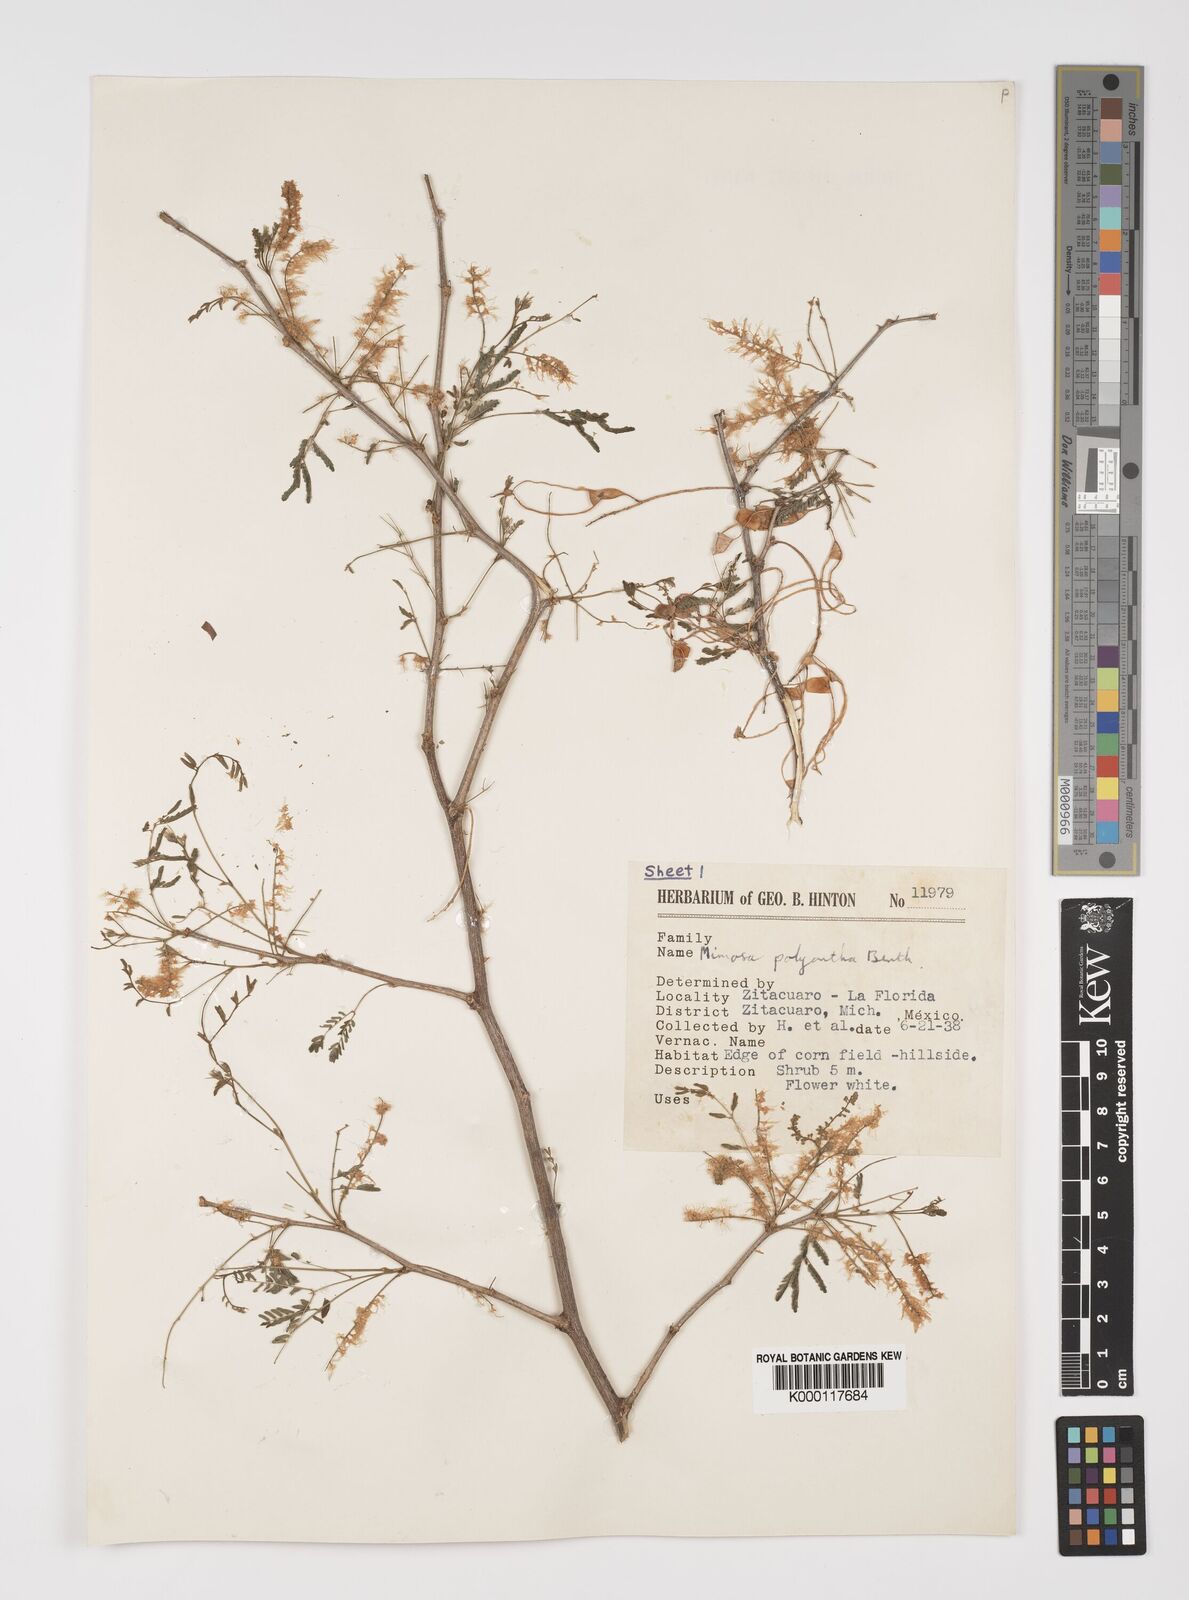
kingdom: Plantae
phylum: Tracheophyta
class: Magnoliopsida
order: Fabales
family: Fabaceae
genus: Mimosa
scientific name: Mimosa polyantha
